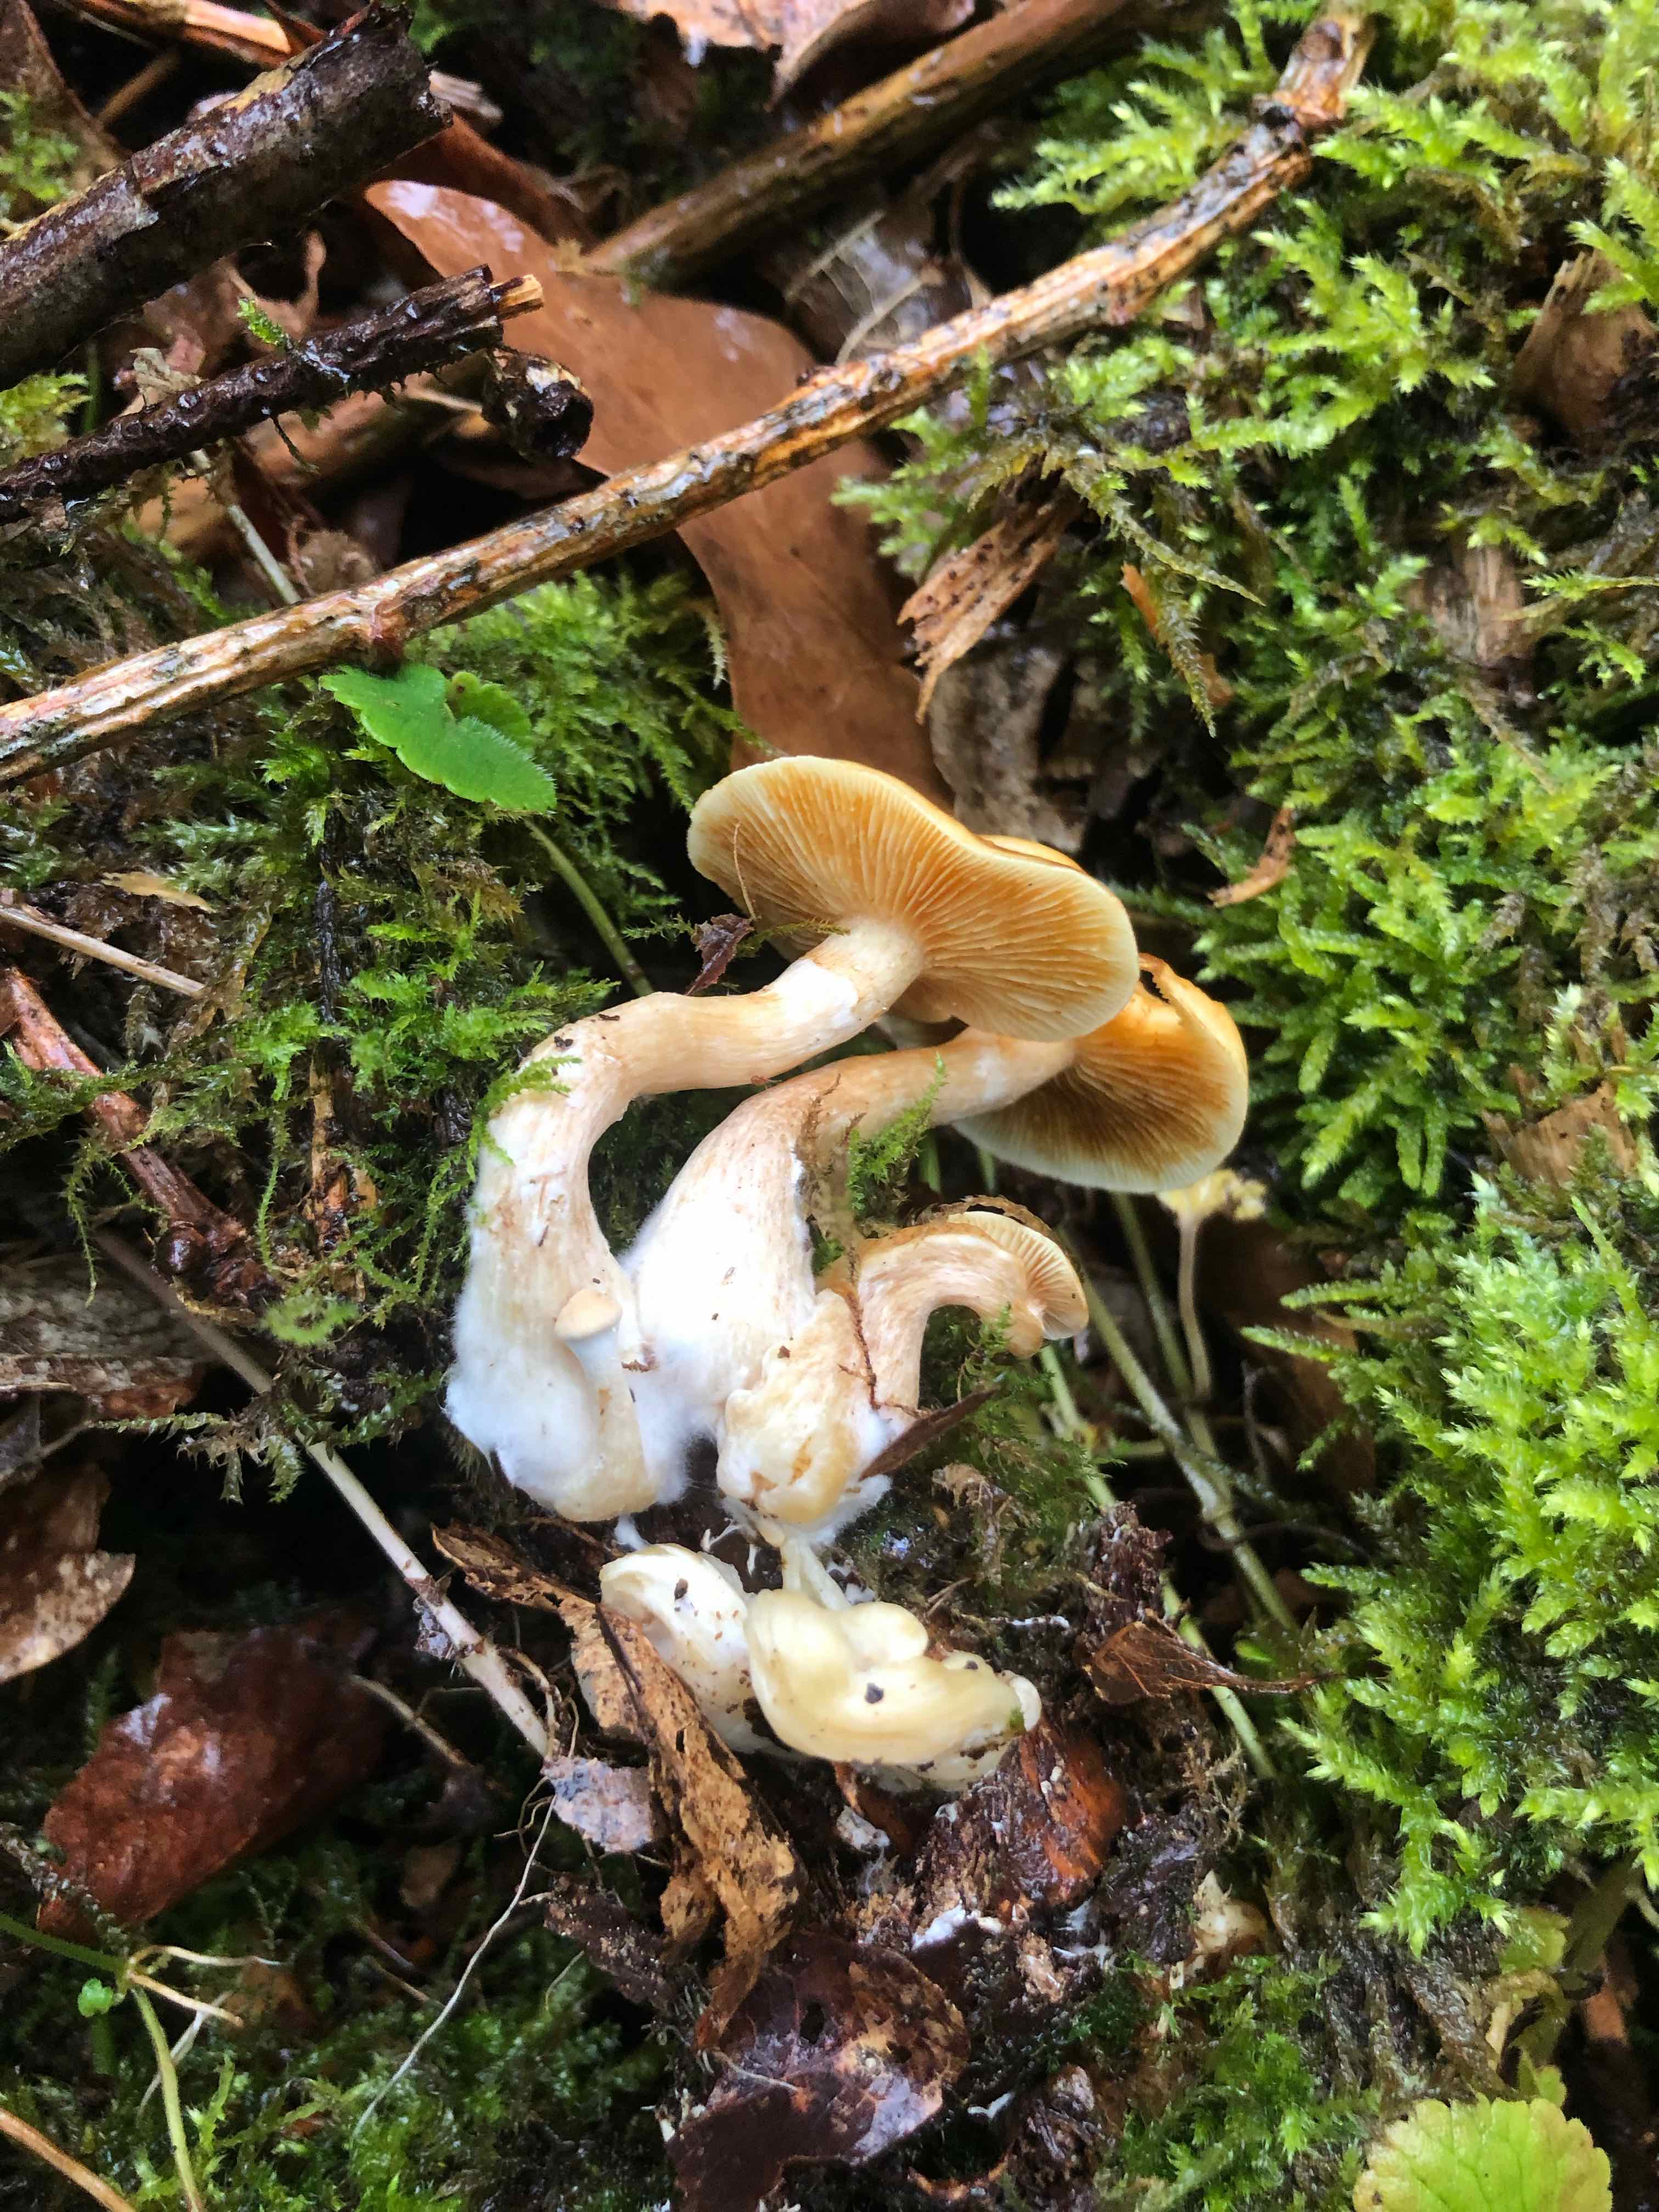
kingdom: Fungi
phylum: Basidiomycota
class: Agaricomycetes
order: Agaricales
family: Hymenogastraceae
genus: Gymnopilus
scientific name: Gymnopilus penetrans
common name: plettet flammehat
